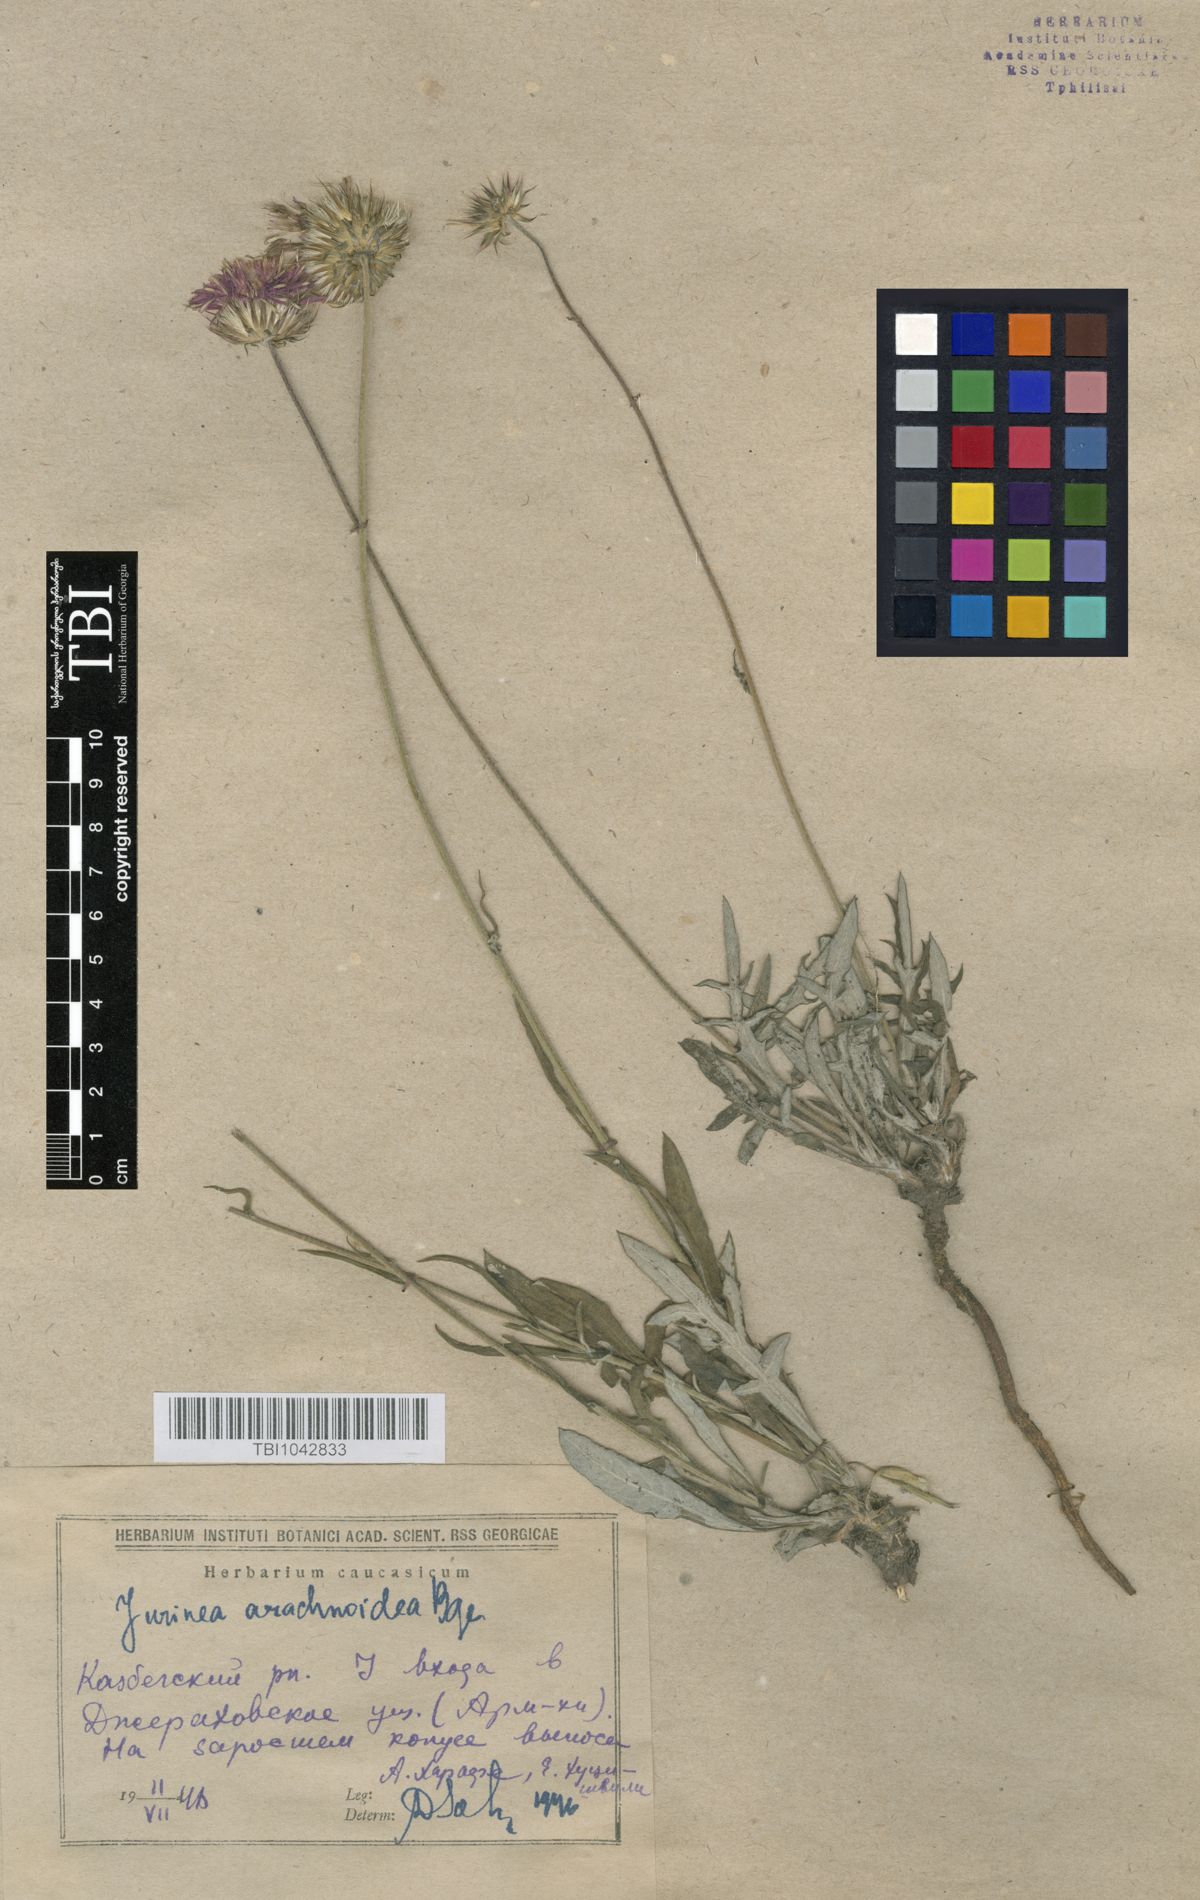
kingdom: Plantae
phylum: Tracheophyta
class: Magnoliopsida
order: Asterales
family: Asteraceae
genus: Jurinea
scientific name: Jurinea blanda
